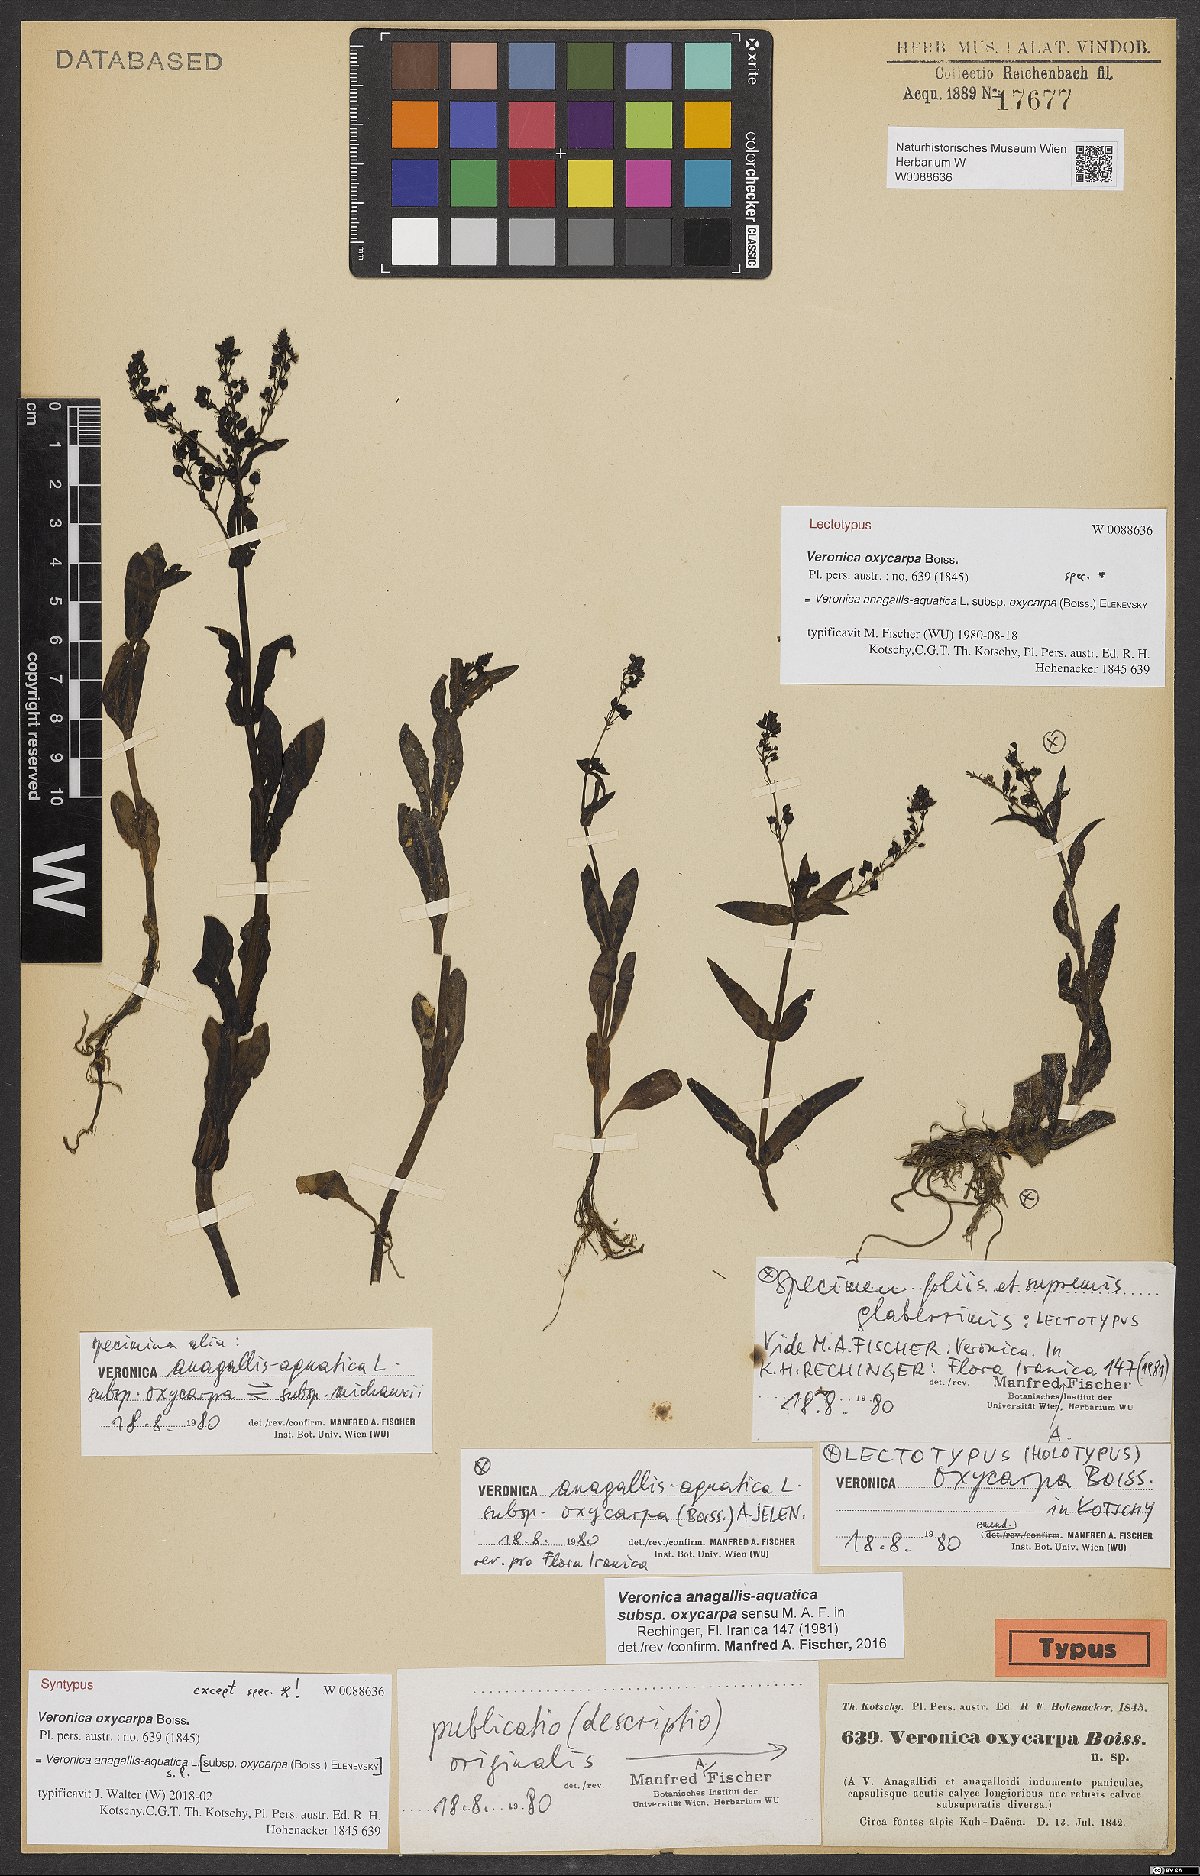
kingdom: Plantae
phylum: Tracheophyta
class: Magnoliopsida
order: Lamiales
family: Plantaginaceae
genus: Veronica
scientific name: Veronica oxycarpa
